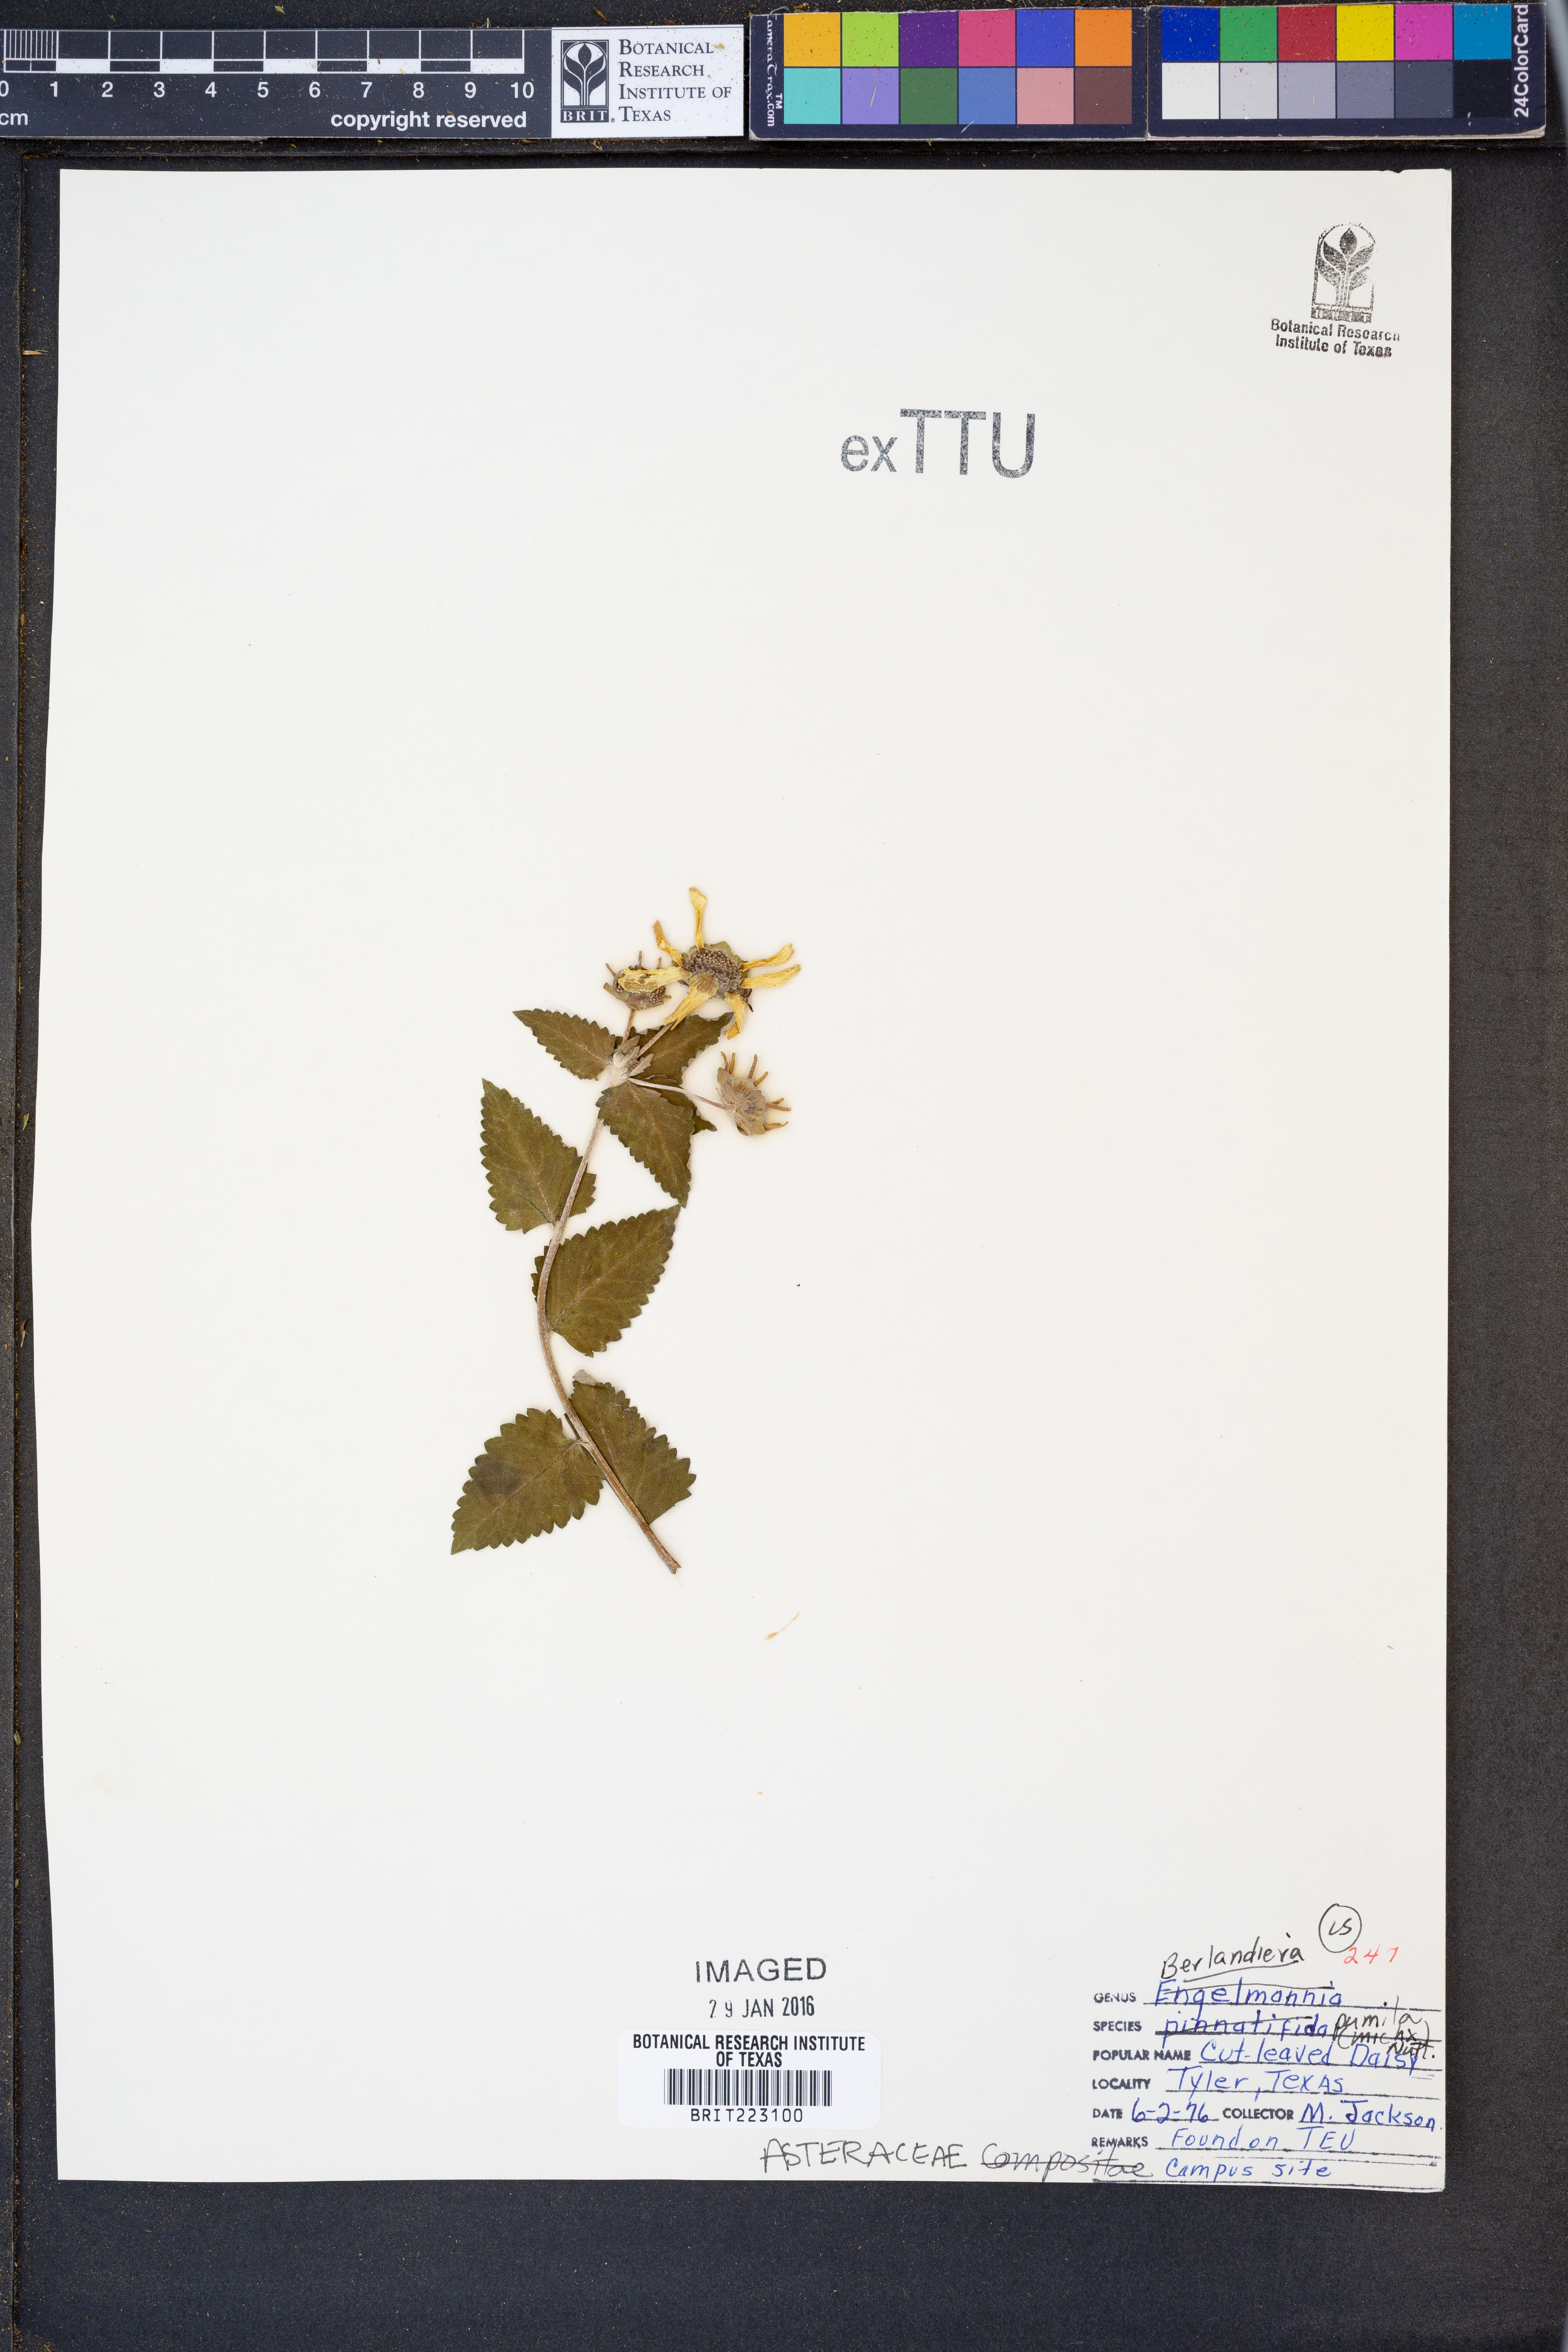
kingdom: Plantae
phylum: Tracheophyta
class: Magnoliopsida
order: Asterales
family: Asteraceae
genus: Berlandiera
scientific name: Berlandiera pumila
